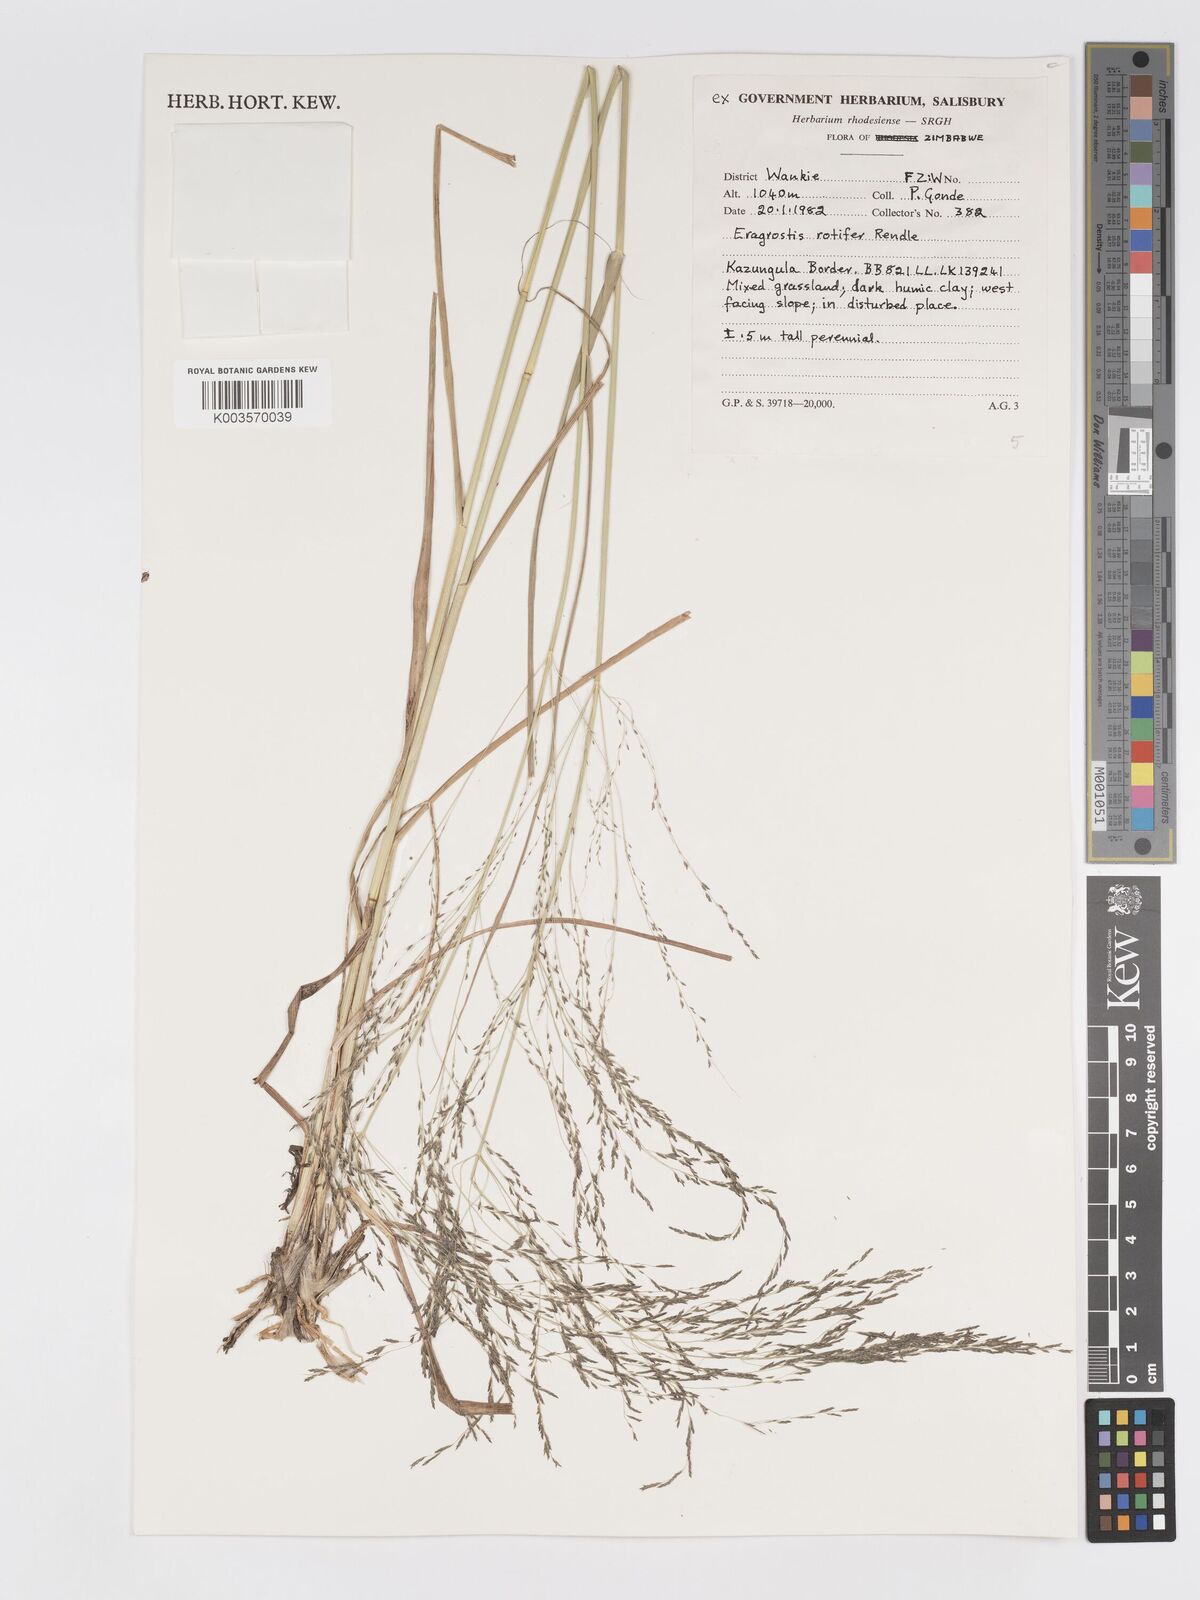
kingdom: Plantae
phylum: Tracheophyta
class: Liliopsida
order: Poales
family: Poaceae
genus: Eragrostis
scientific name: Eragrostis rotifer
